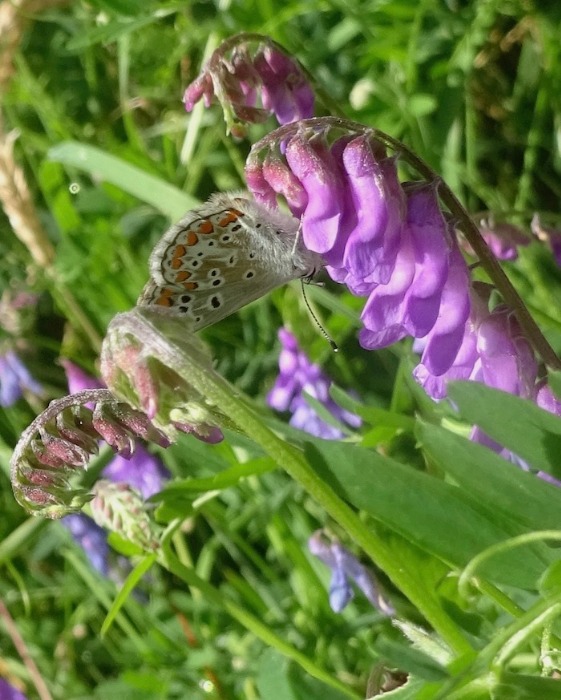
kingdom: Animalia
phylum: Arthropoda
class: Insecta
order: Lepidoptera
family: Lycaenidae
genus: Aricia
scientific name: Aricia agestis
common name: Rødplettet blåfugl
